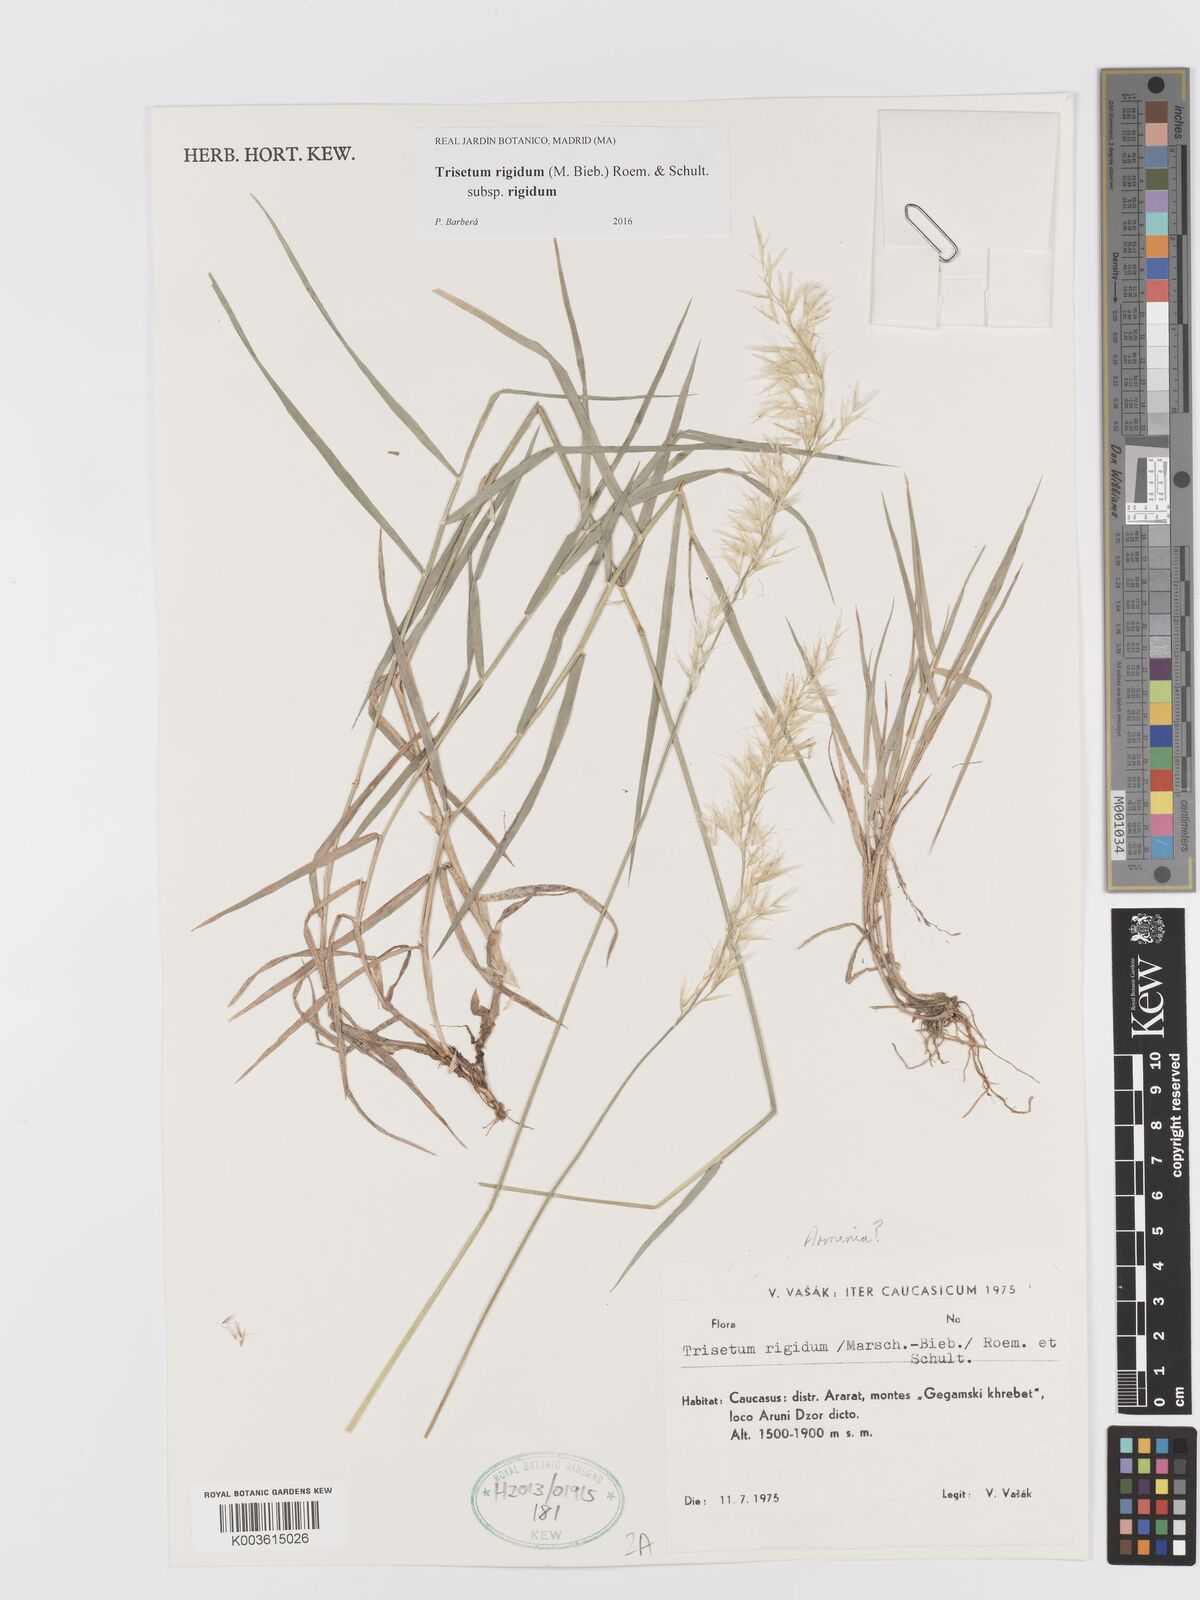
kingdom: Plantae
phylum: Tracheophyta
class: Liliopsida
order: Poales
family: Poaceae
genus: Trisetum
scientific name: Trisetum rigidum
